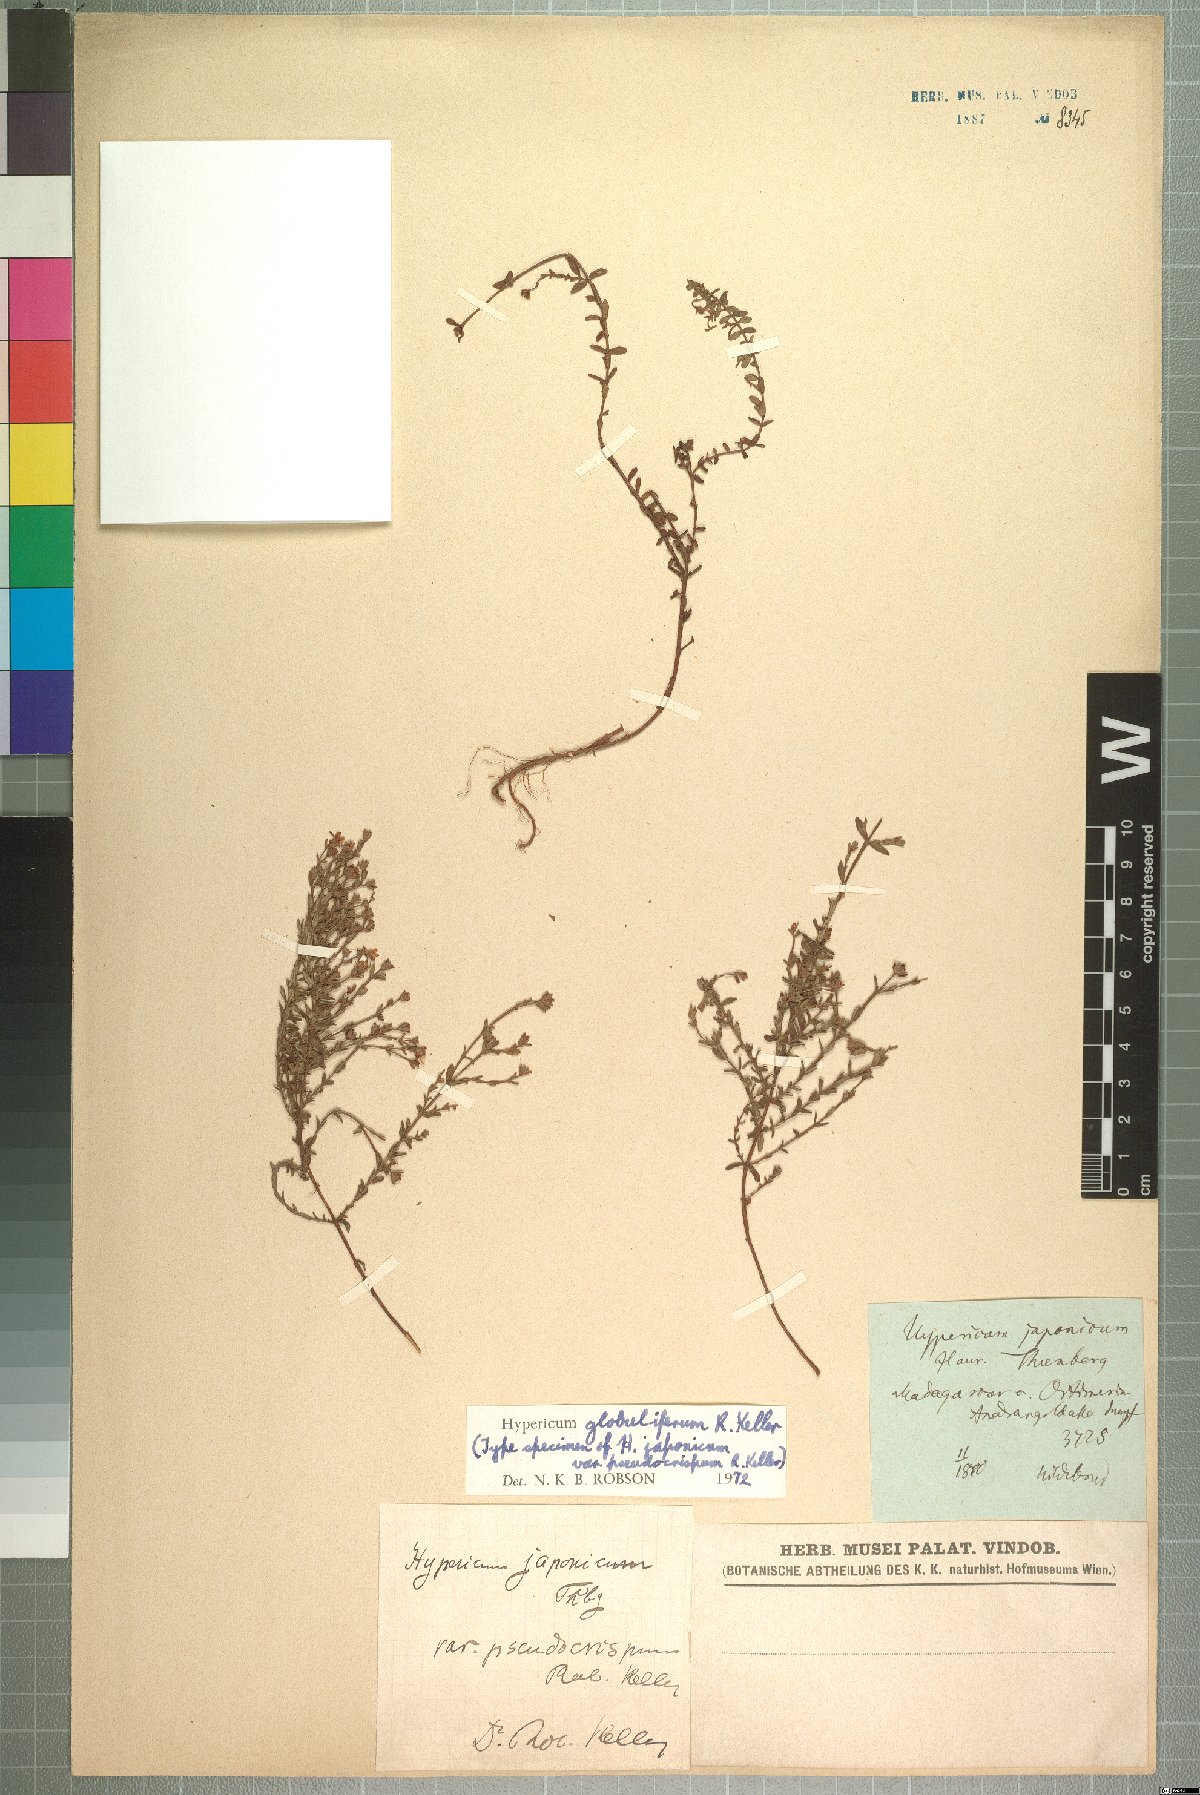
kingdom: Plantae
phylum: Tracheophyta
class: Magnoliopsida
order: Malpighiales
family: Hypericaceae
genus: Hypericum
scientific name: Hypericum globuliferum
